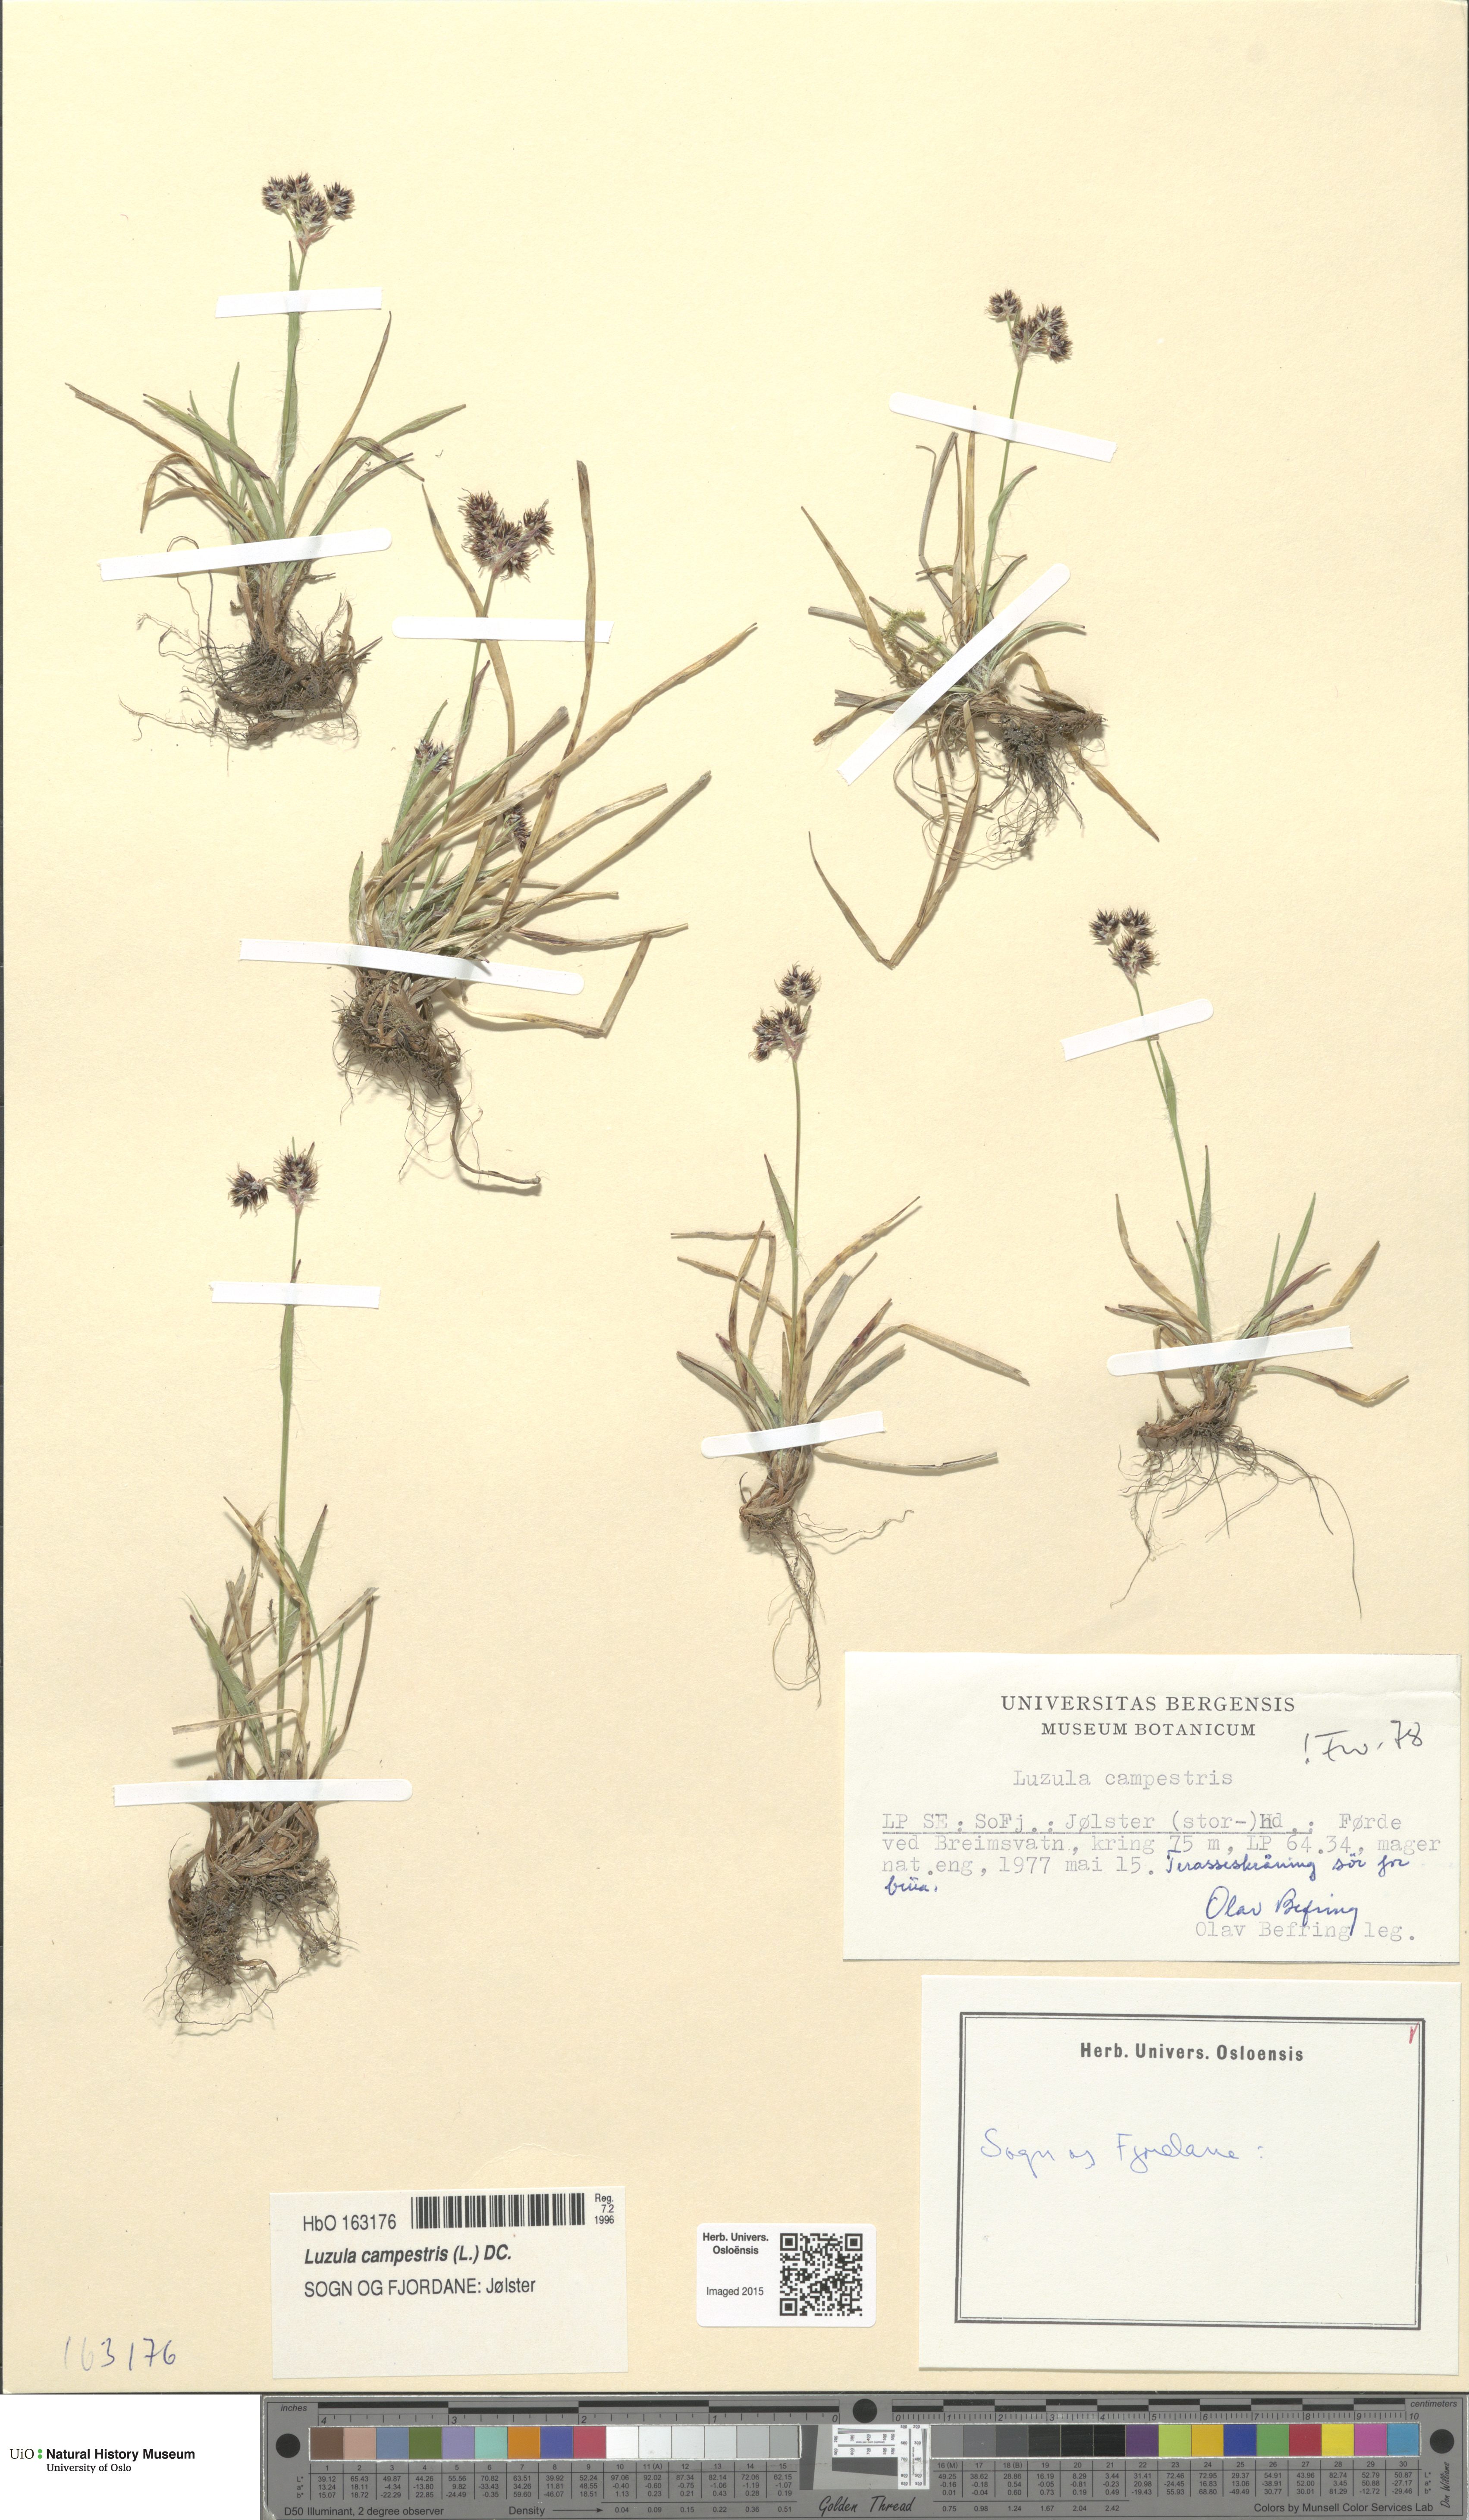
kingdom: Plantae
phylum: Tracheophyta
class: Liliopsida
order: Poales
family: Juncaceae
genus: Luzula
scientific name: Luzula campestris
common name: Field wood-rush
